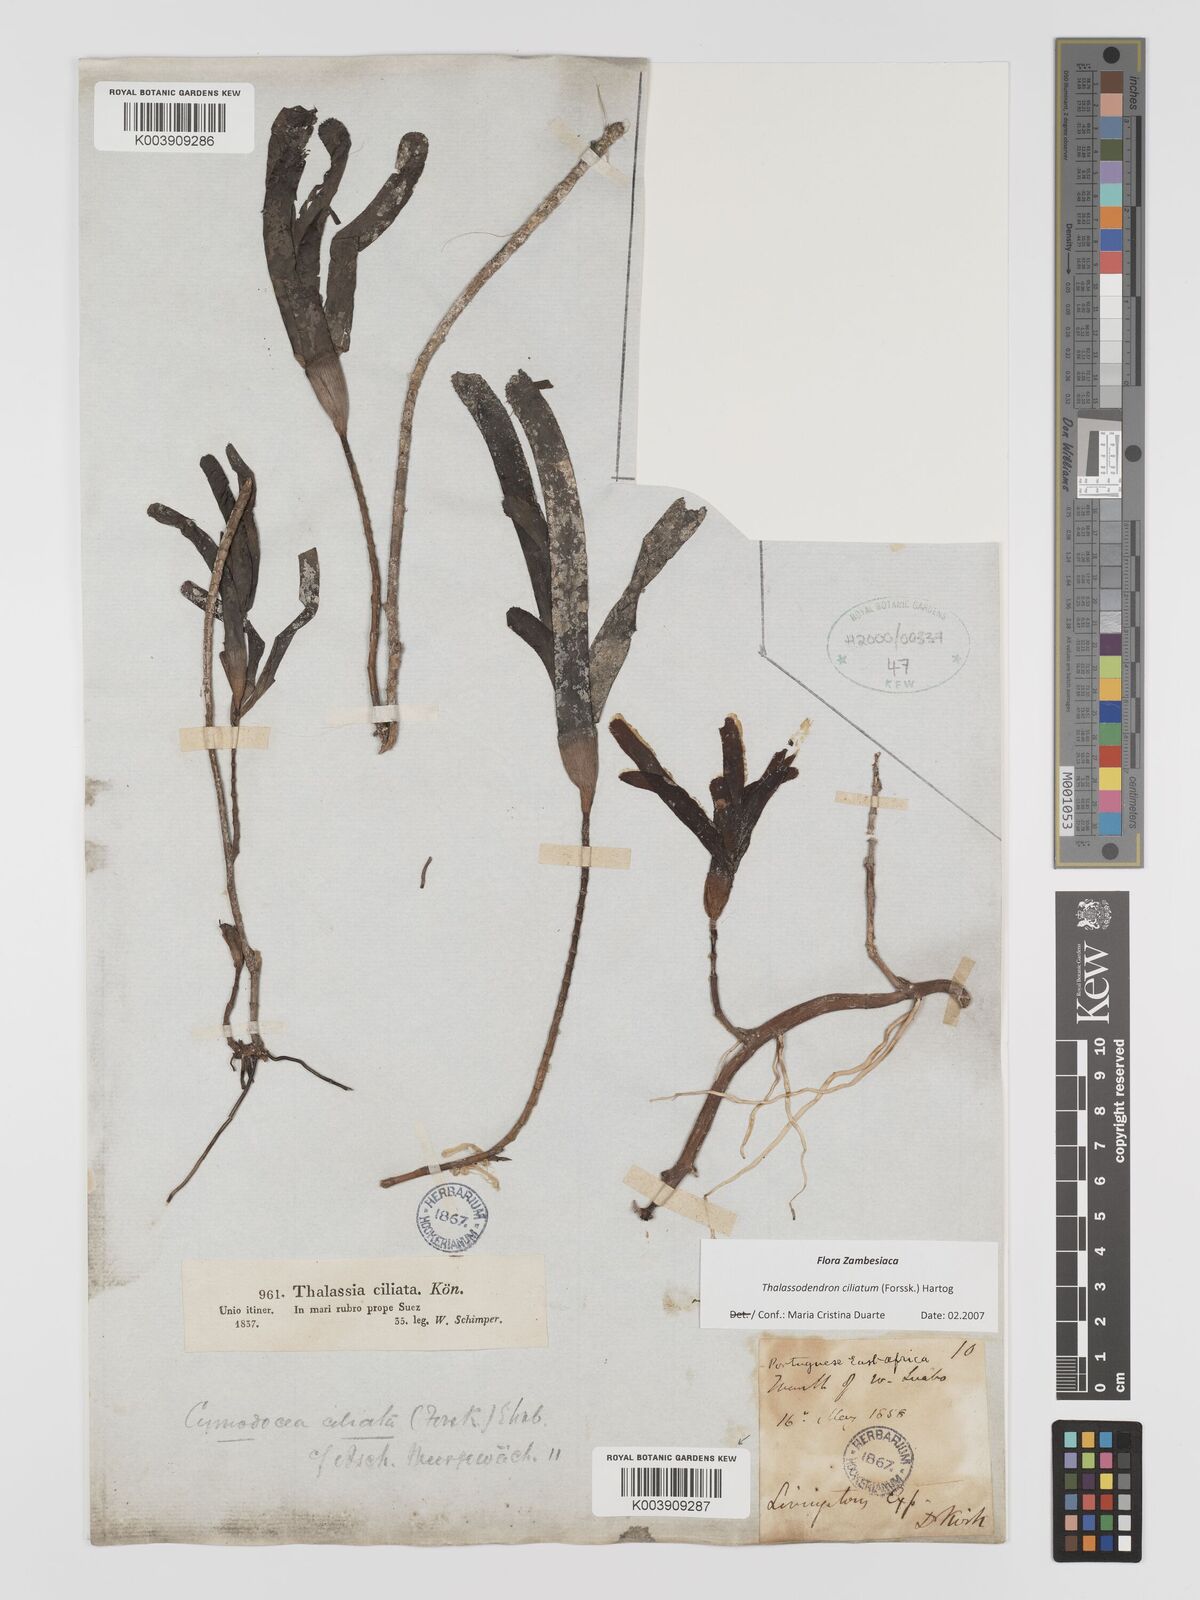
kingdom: Plantae
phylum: Tracheophyta
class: Liliopsida
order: Alismatales
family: Cymodoceaceae
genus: Thalassodendron
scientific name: Thalassodendron ciliatum
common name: Species code: tc
